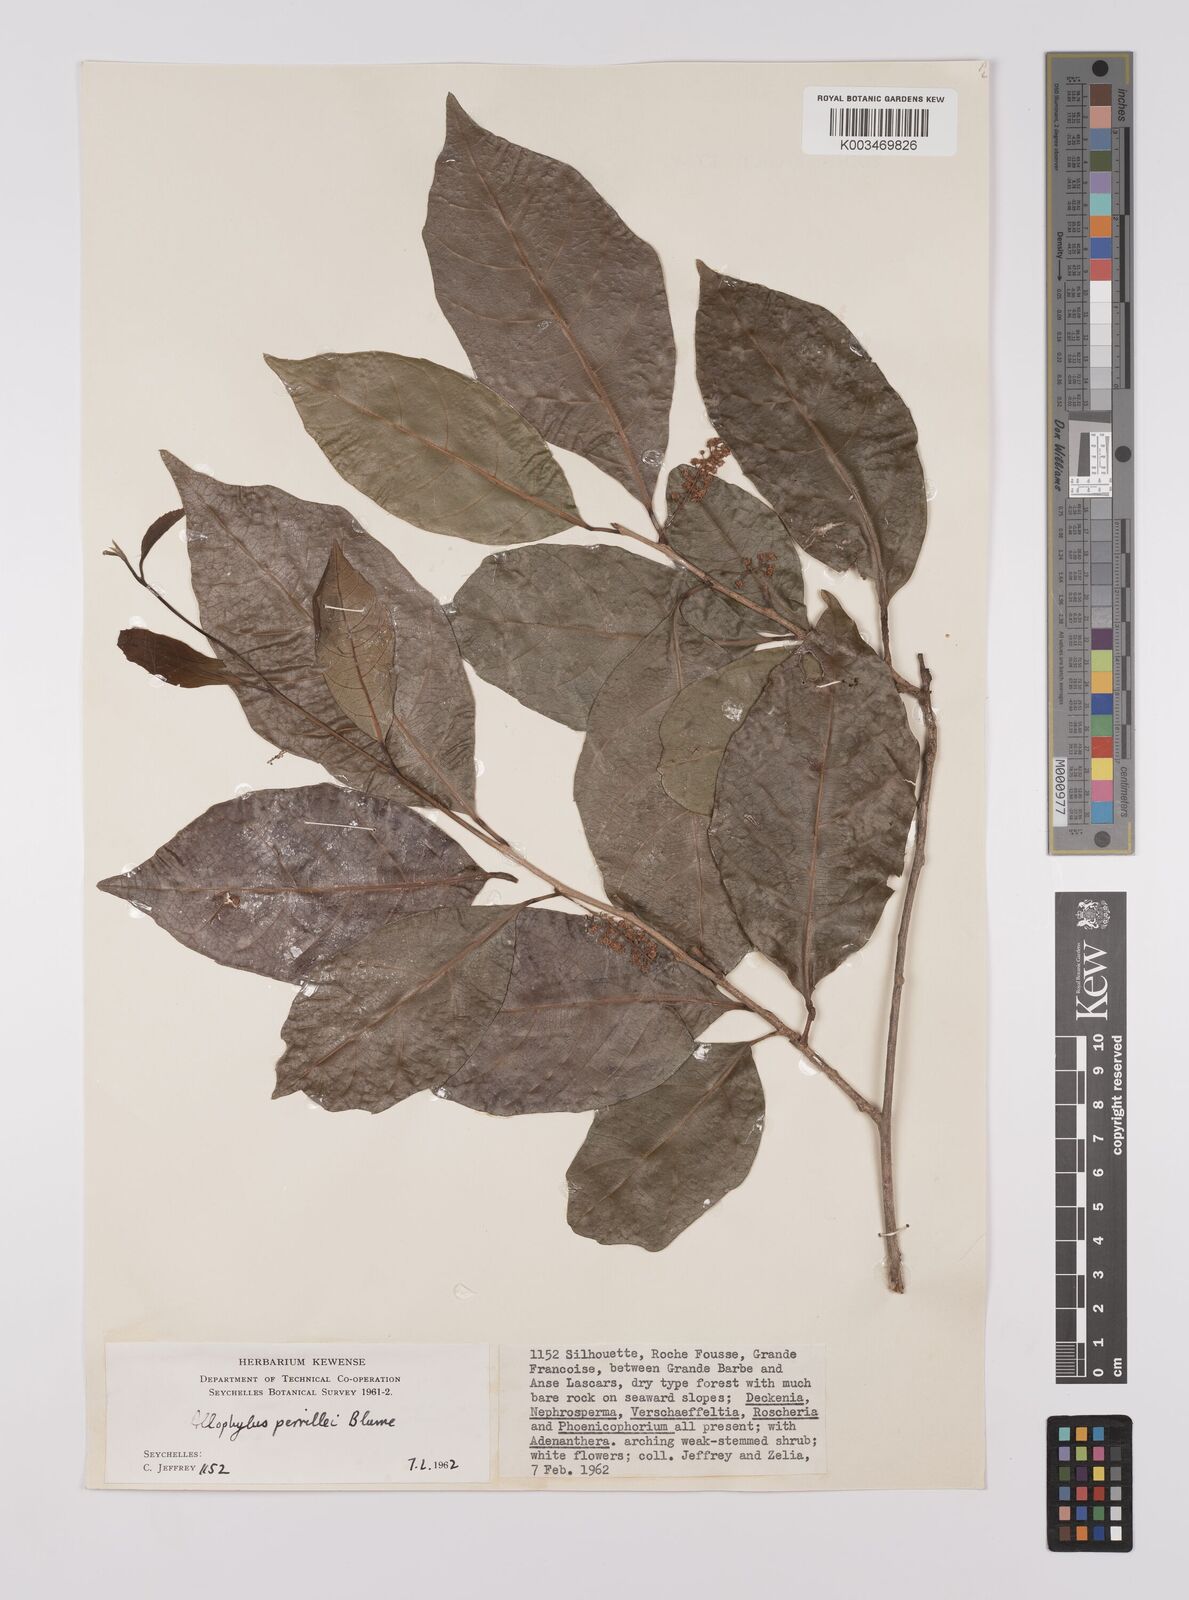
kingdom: Plantae
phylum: Tracheophyta
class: Magnoliopsida
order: Sapindales
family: Sapindaceae
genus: Allophylus
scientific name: Allophylus pervillei
